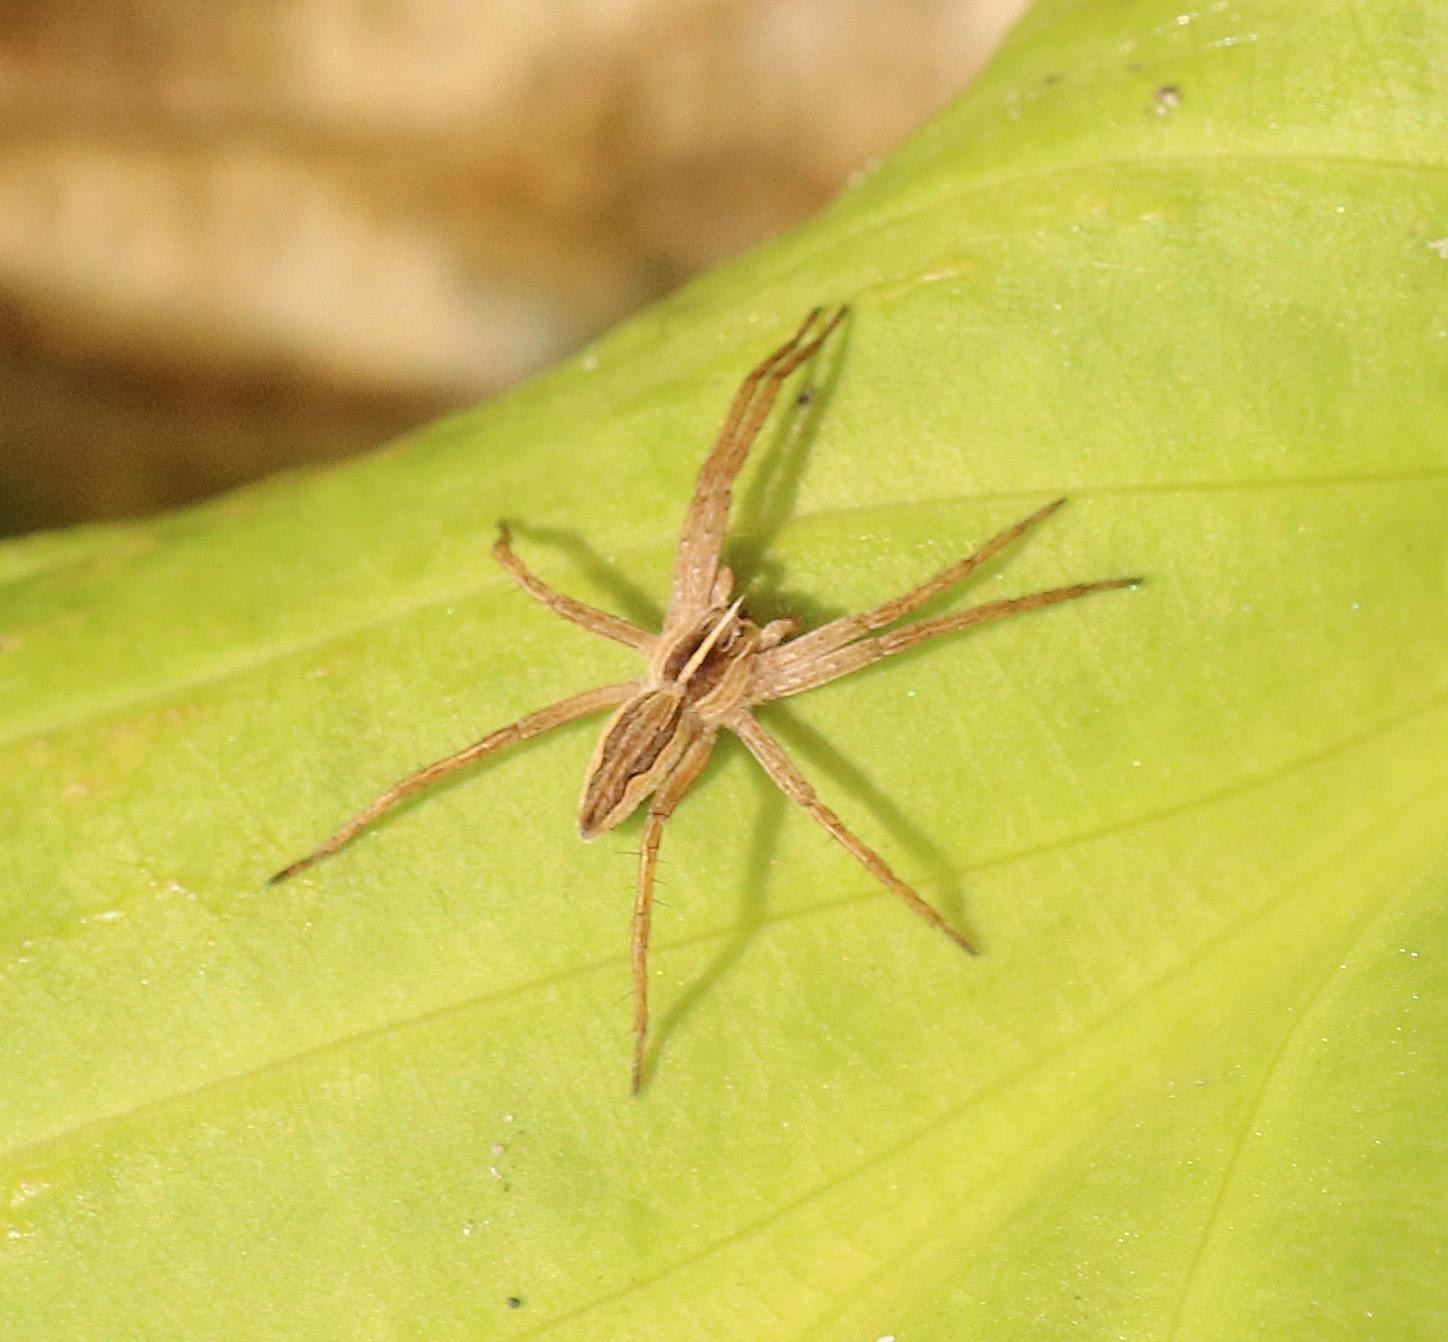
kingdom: Animalia
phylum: Arthropoda
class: Arachnida
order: Araneae
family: Pisauridae
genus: Pisaura
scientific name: Pisaura mirabilis
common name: Almindelig rovedderkop
